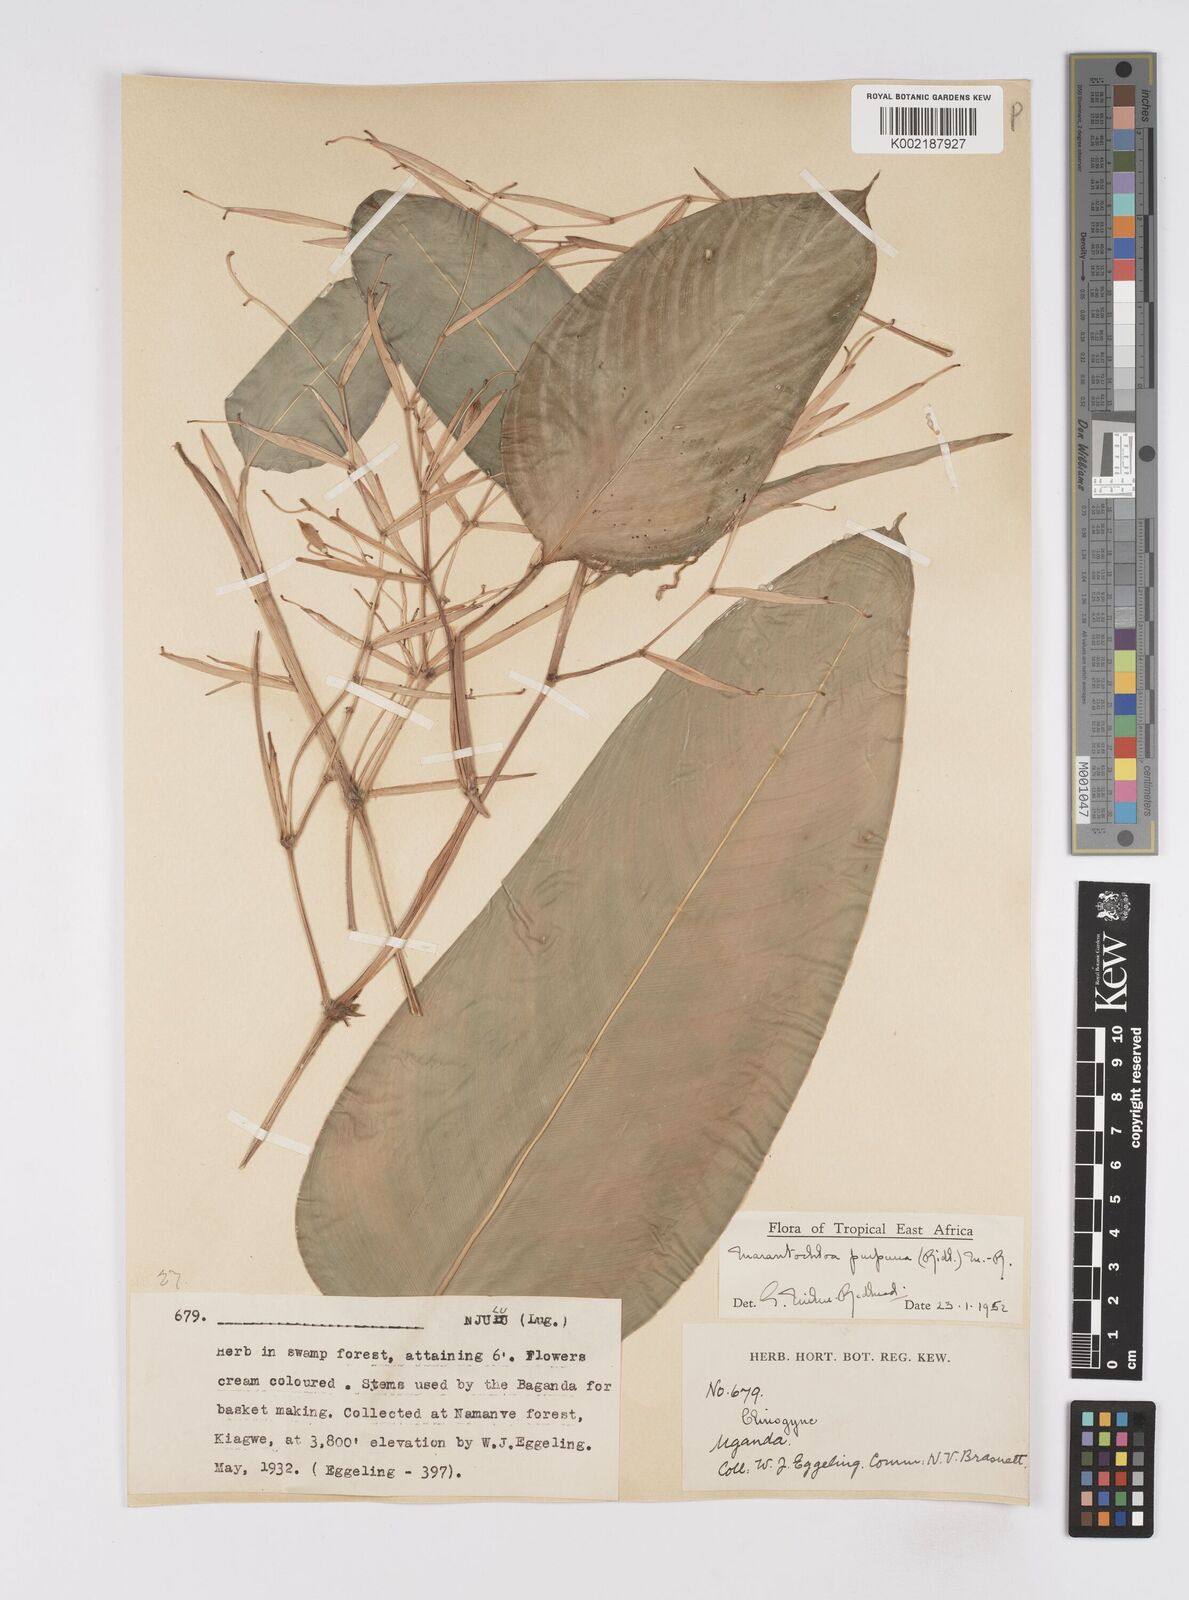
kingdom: Plantae
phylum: Tracheophyta
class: Liliopsida
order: Zingiberales
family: Marantaceae
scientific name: Marantaceae
